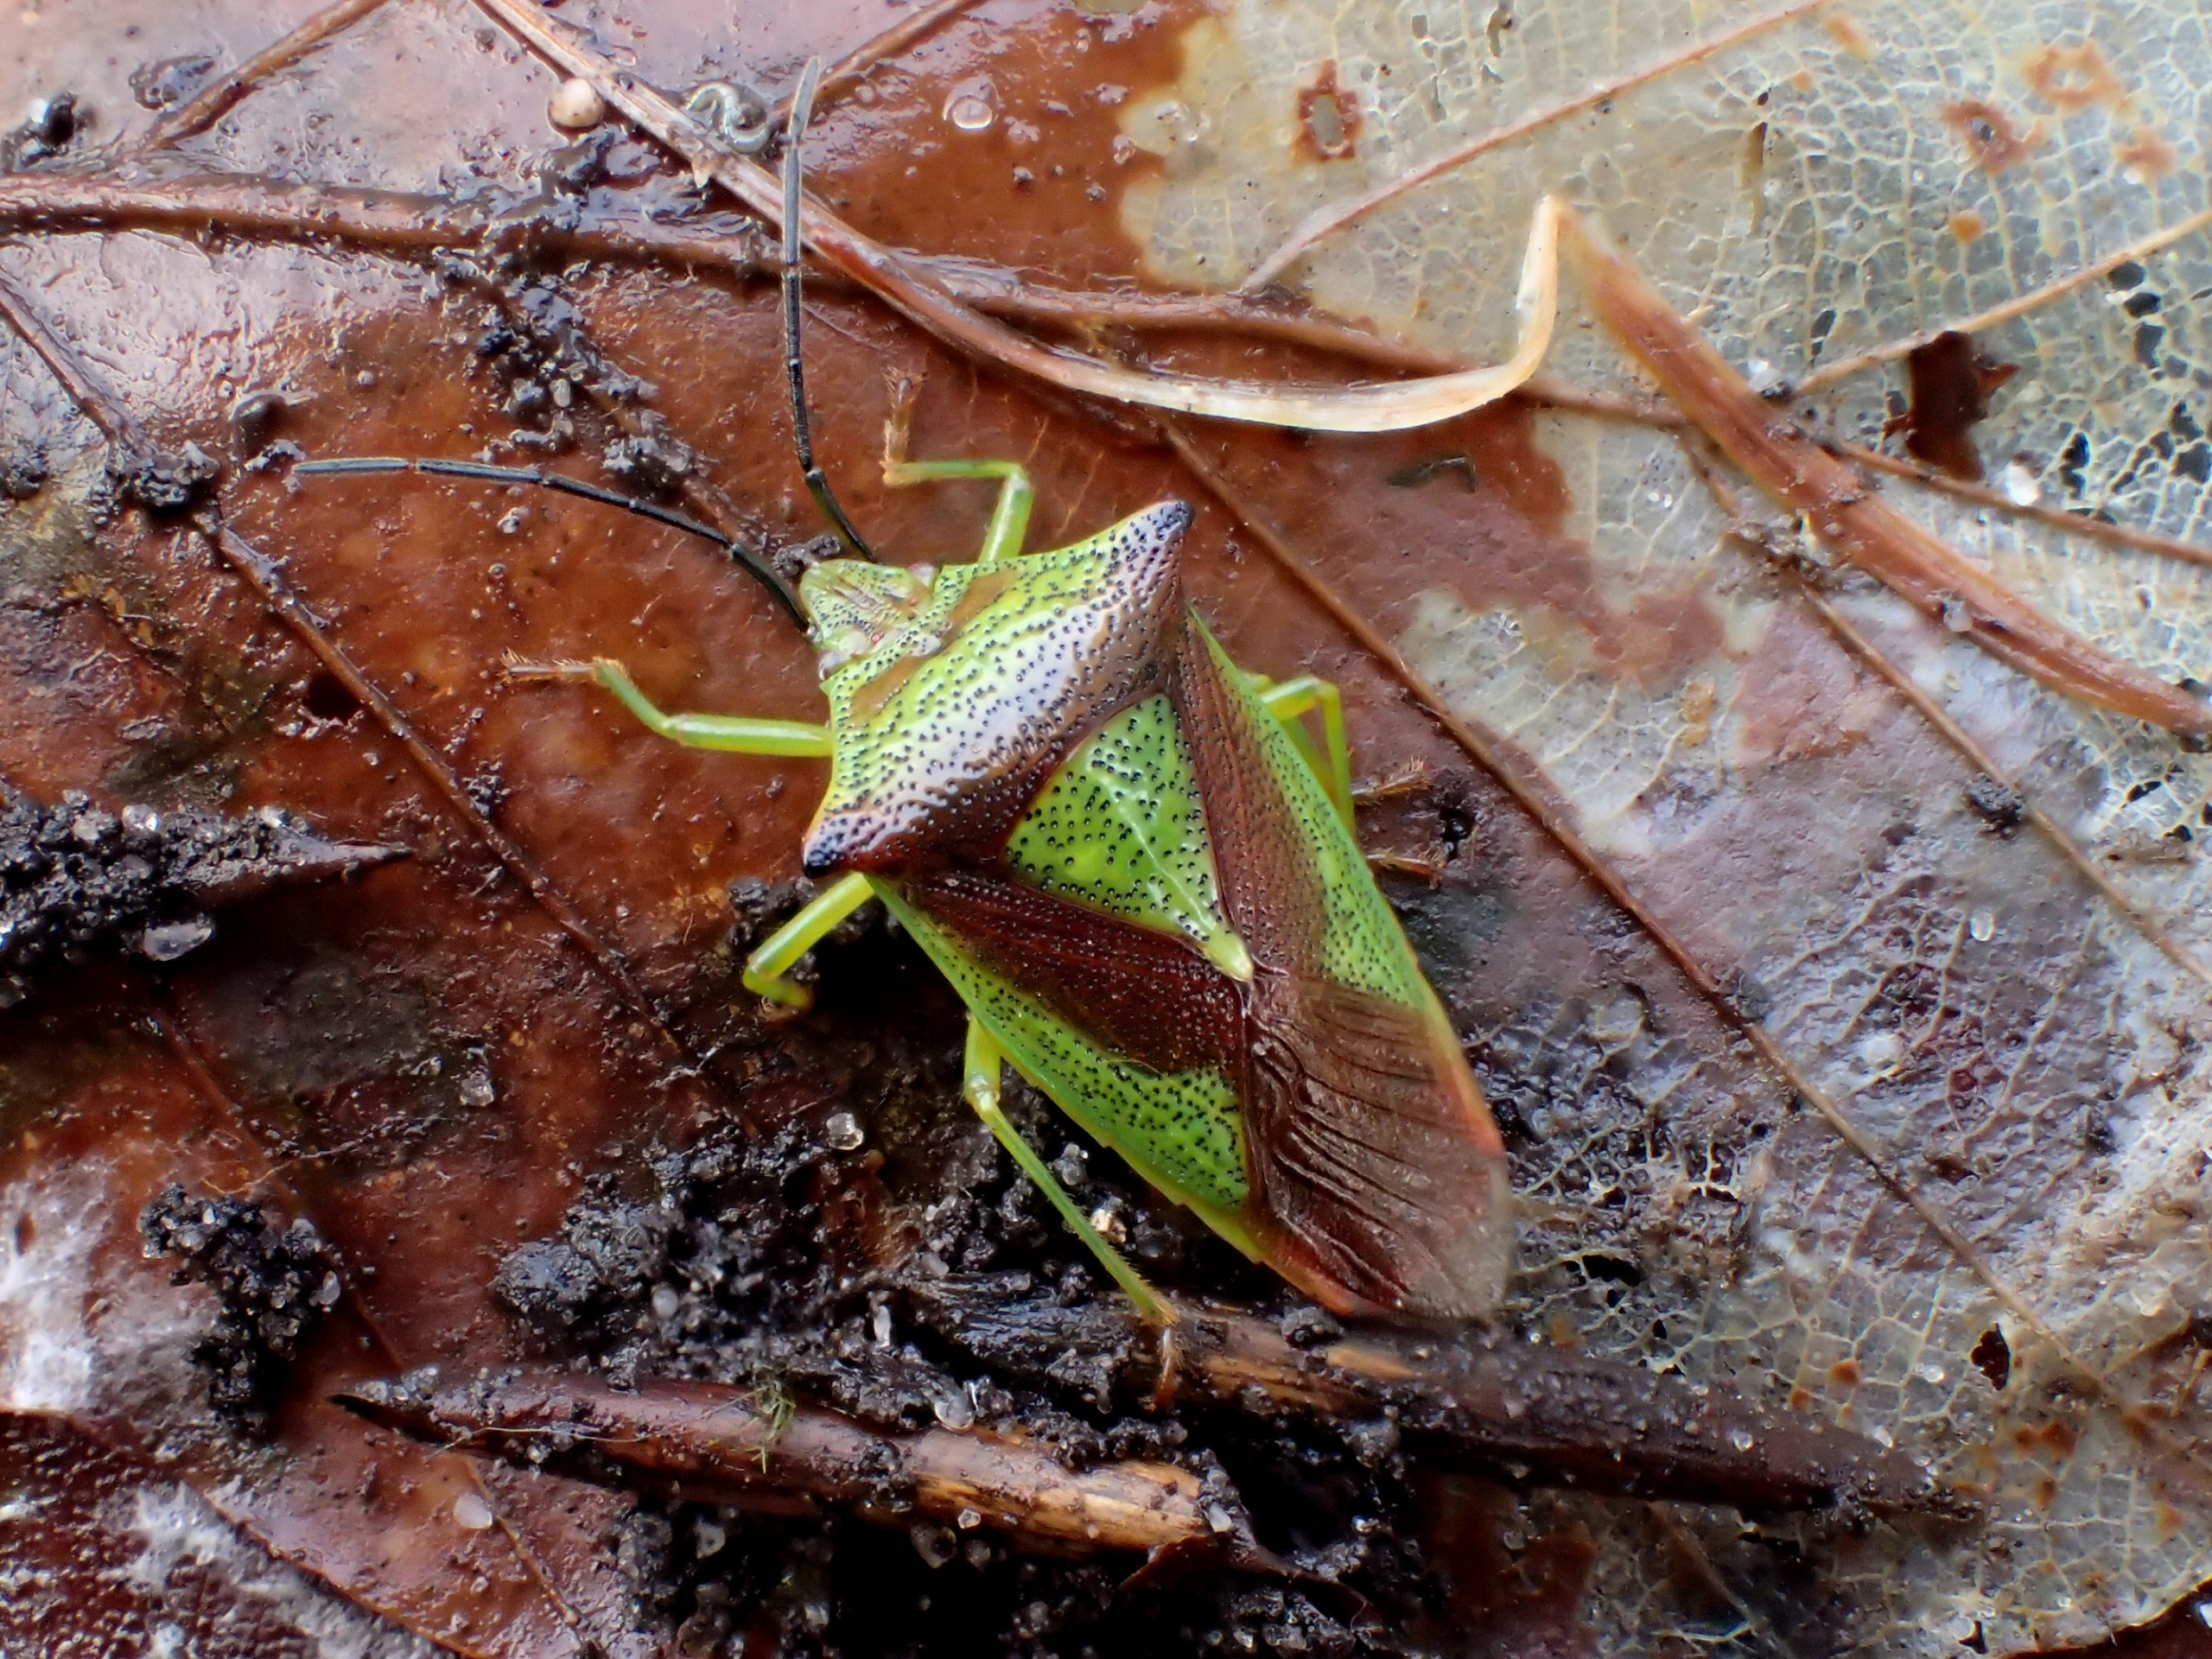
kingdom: Animalia
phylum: Arthropoda
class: Insecta
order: Hemiptera
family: Acanthosomatidae
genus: Acanthosoma
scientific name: Acanthosoma haemorrhoidale
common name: Stor løvtæge
